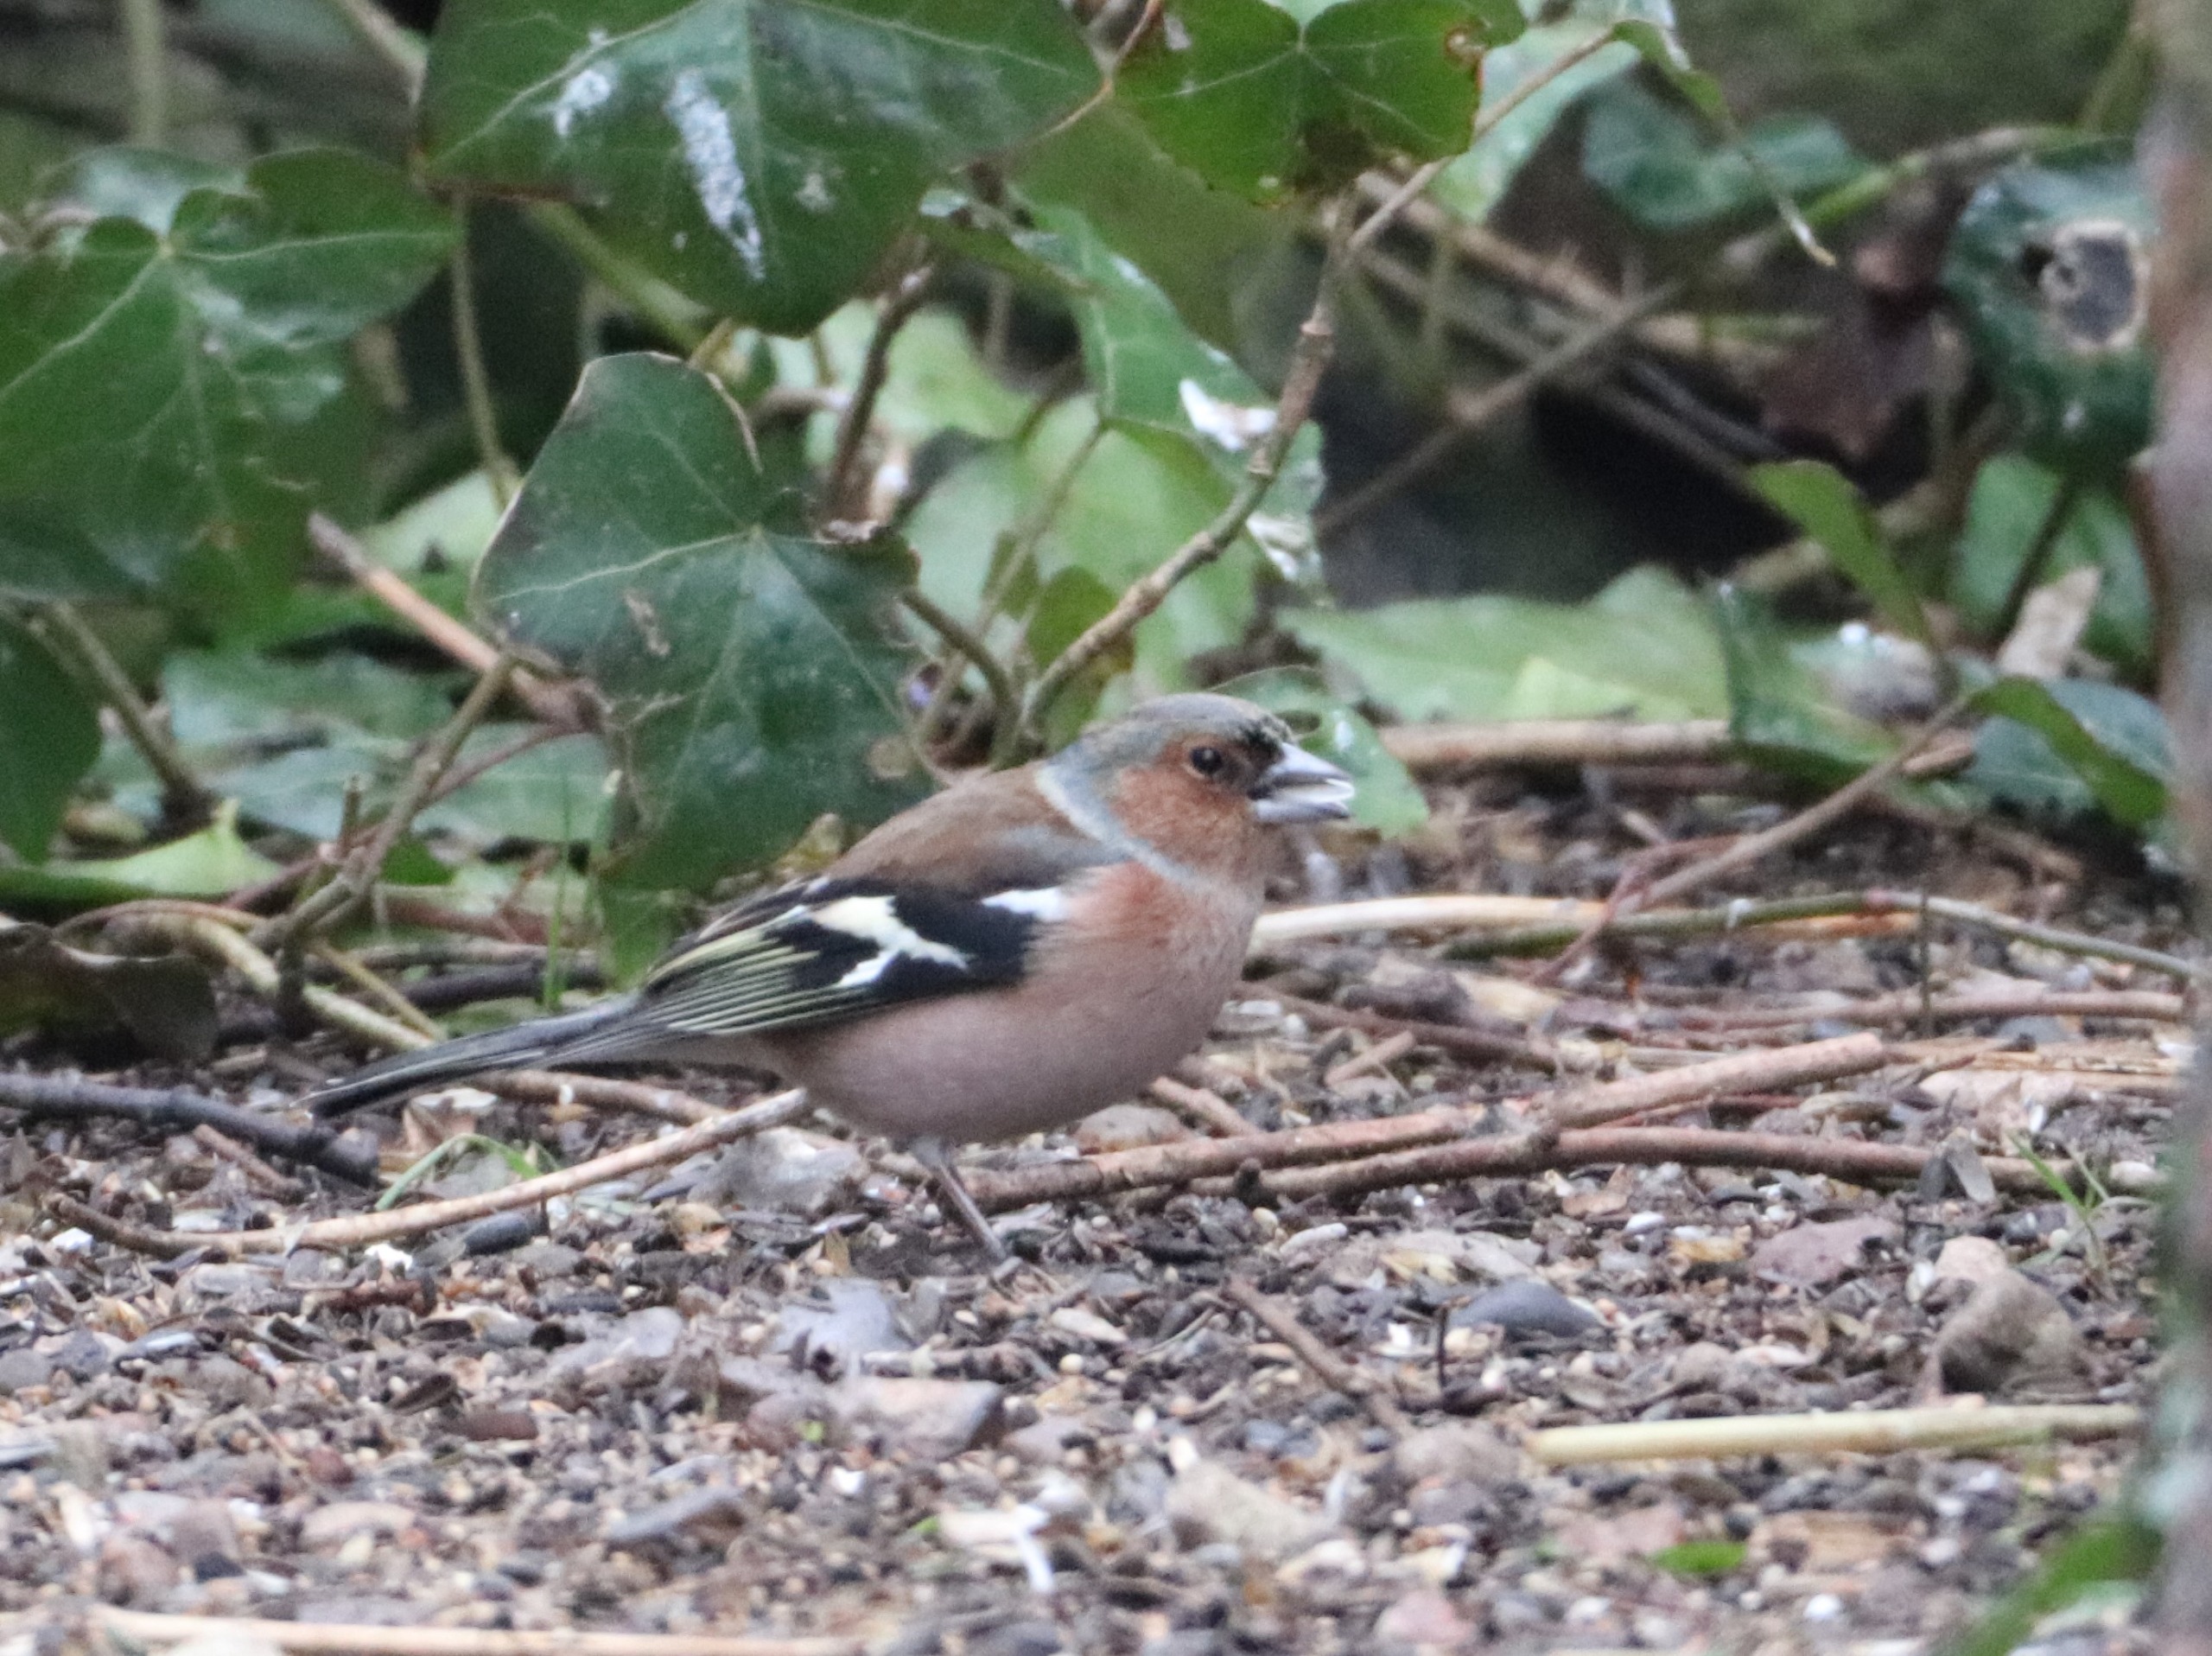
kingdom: Animalia
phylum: Chordata
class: Aves
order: Passeriformes
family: Fringillidae
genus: Fringilla
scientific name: Fringilla coelebs
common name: Bogfinke
